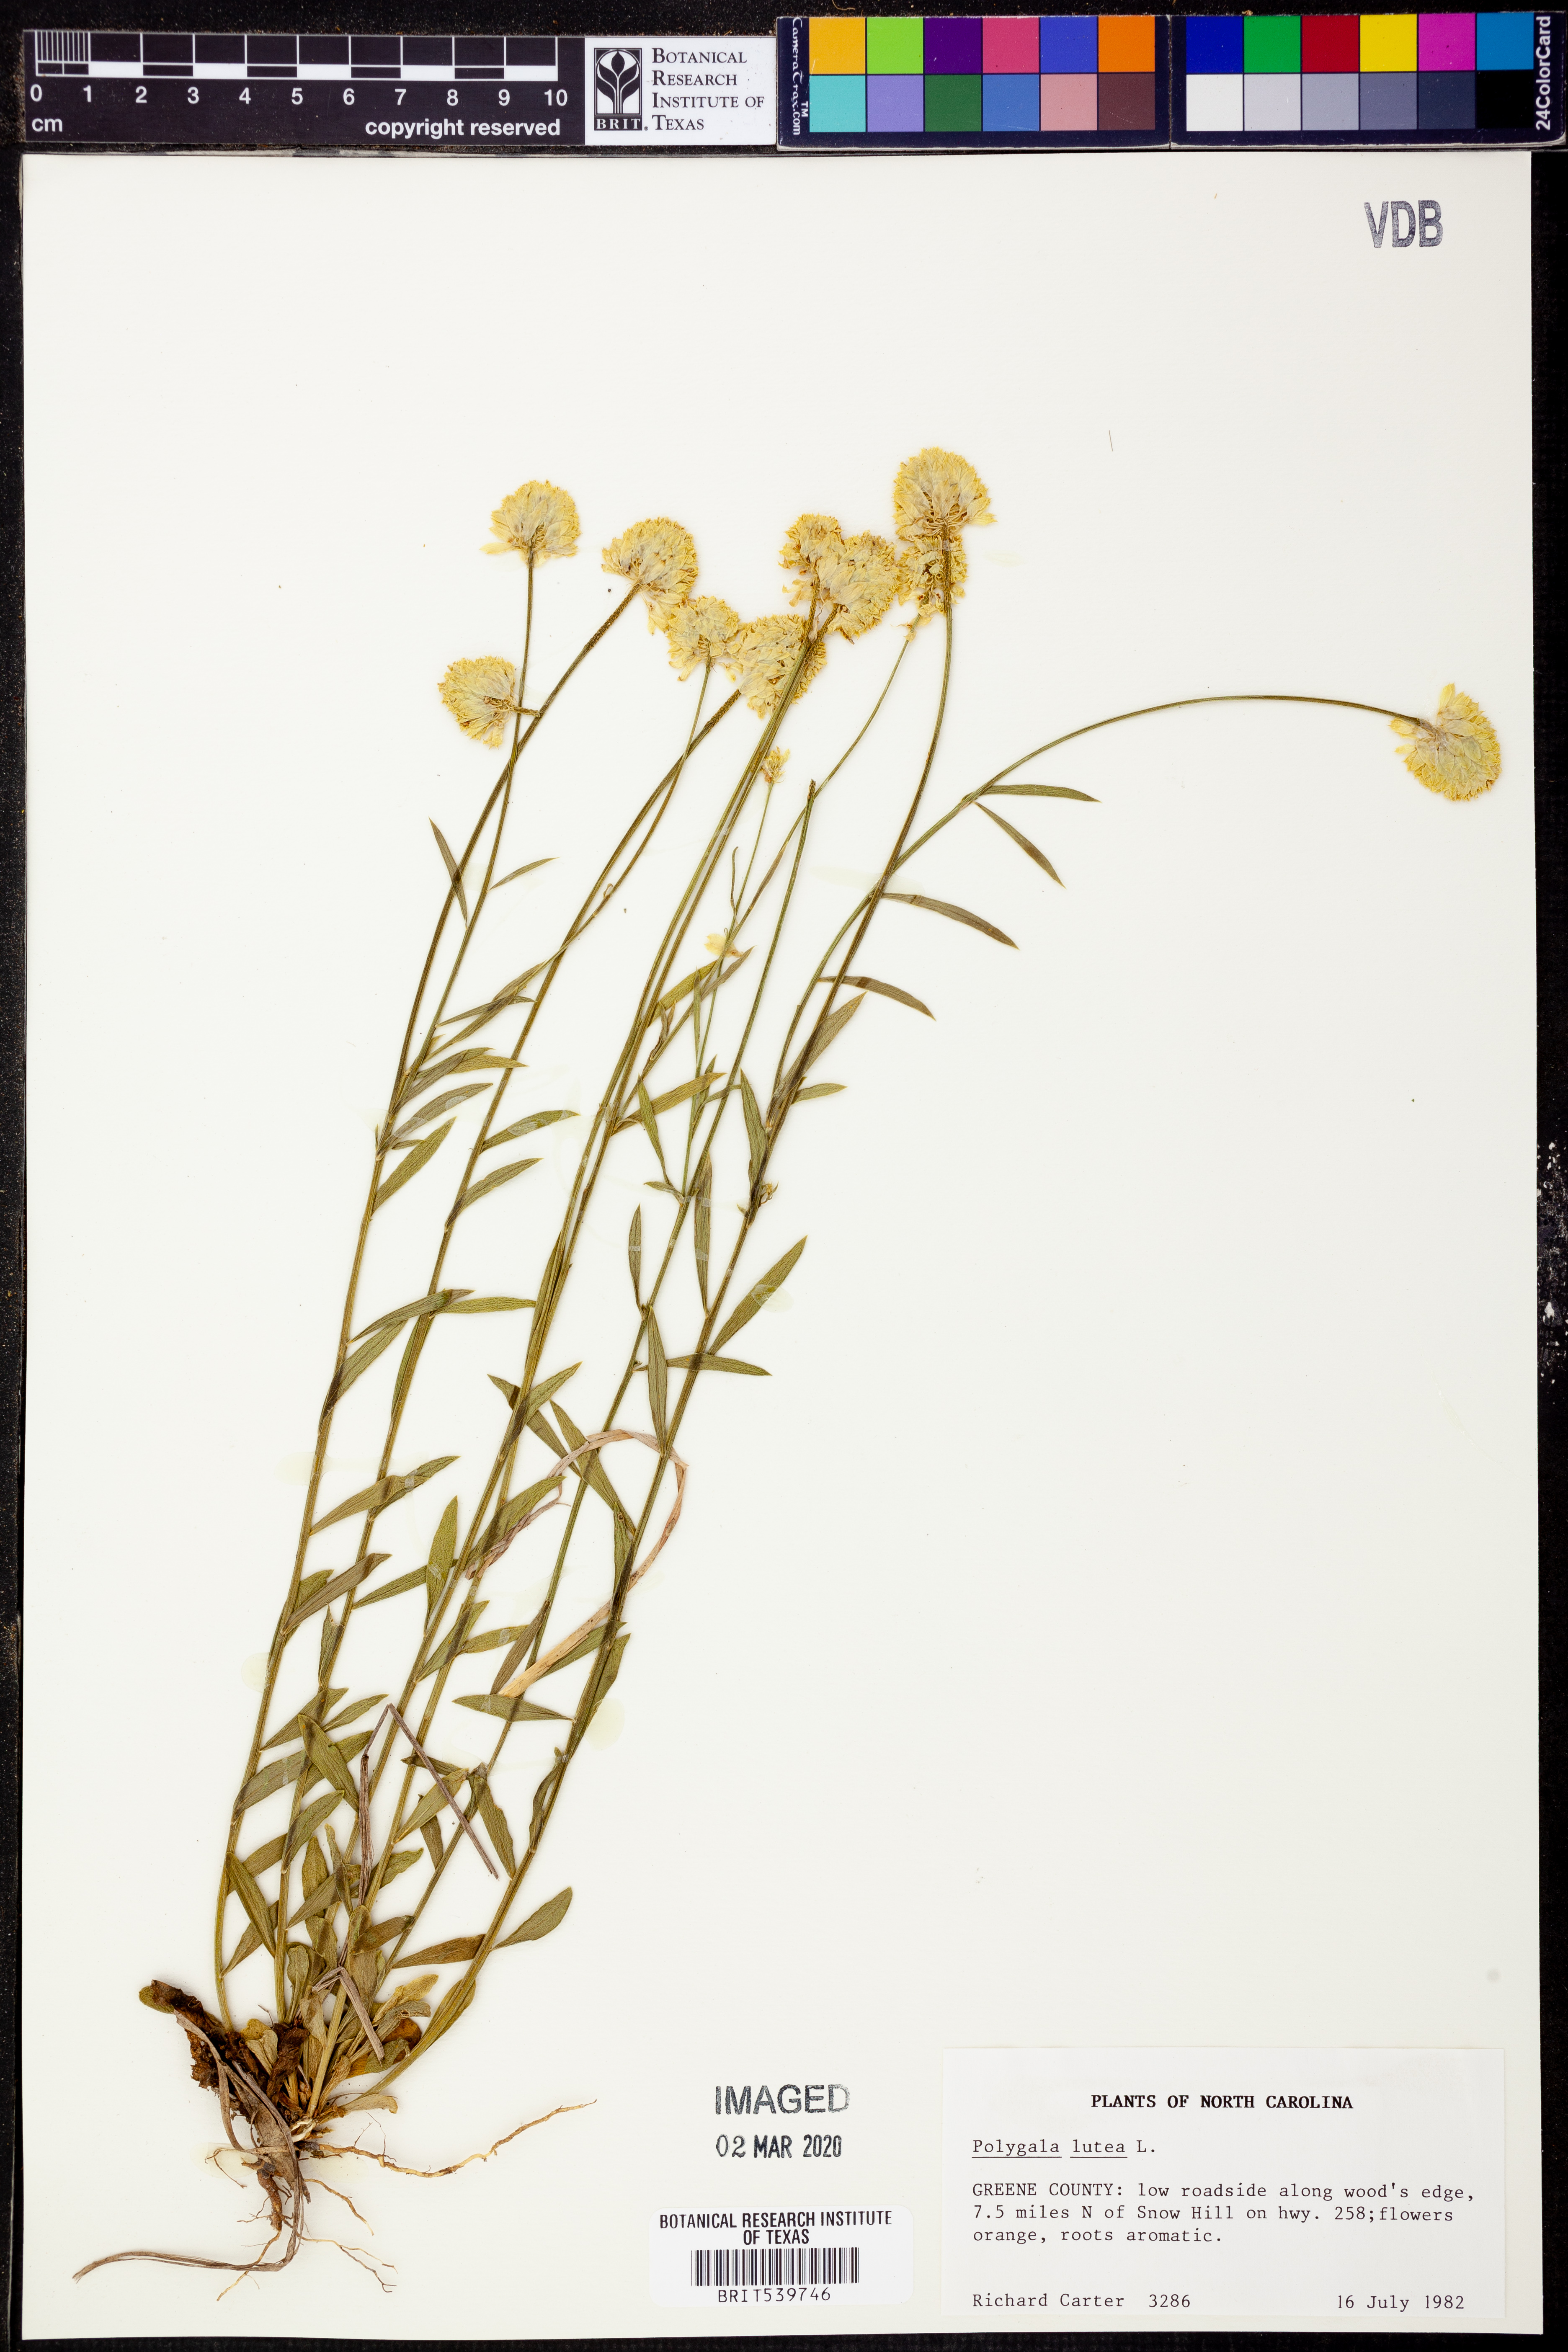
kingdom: Plantae
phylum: Tracheophyta
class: Magnoliopsida
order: Fabales
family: Polygalaceae
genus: Polygala
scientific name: Polygala lutea
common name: Orange milkwort
